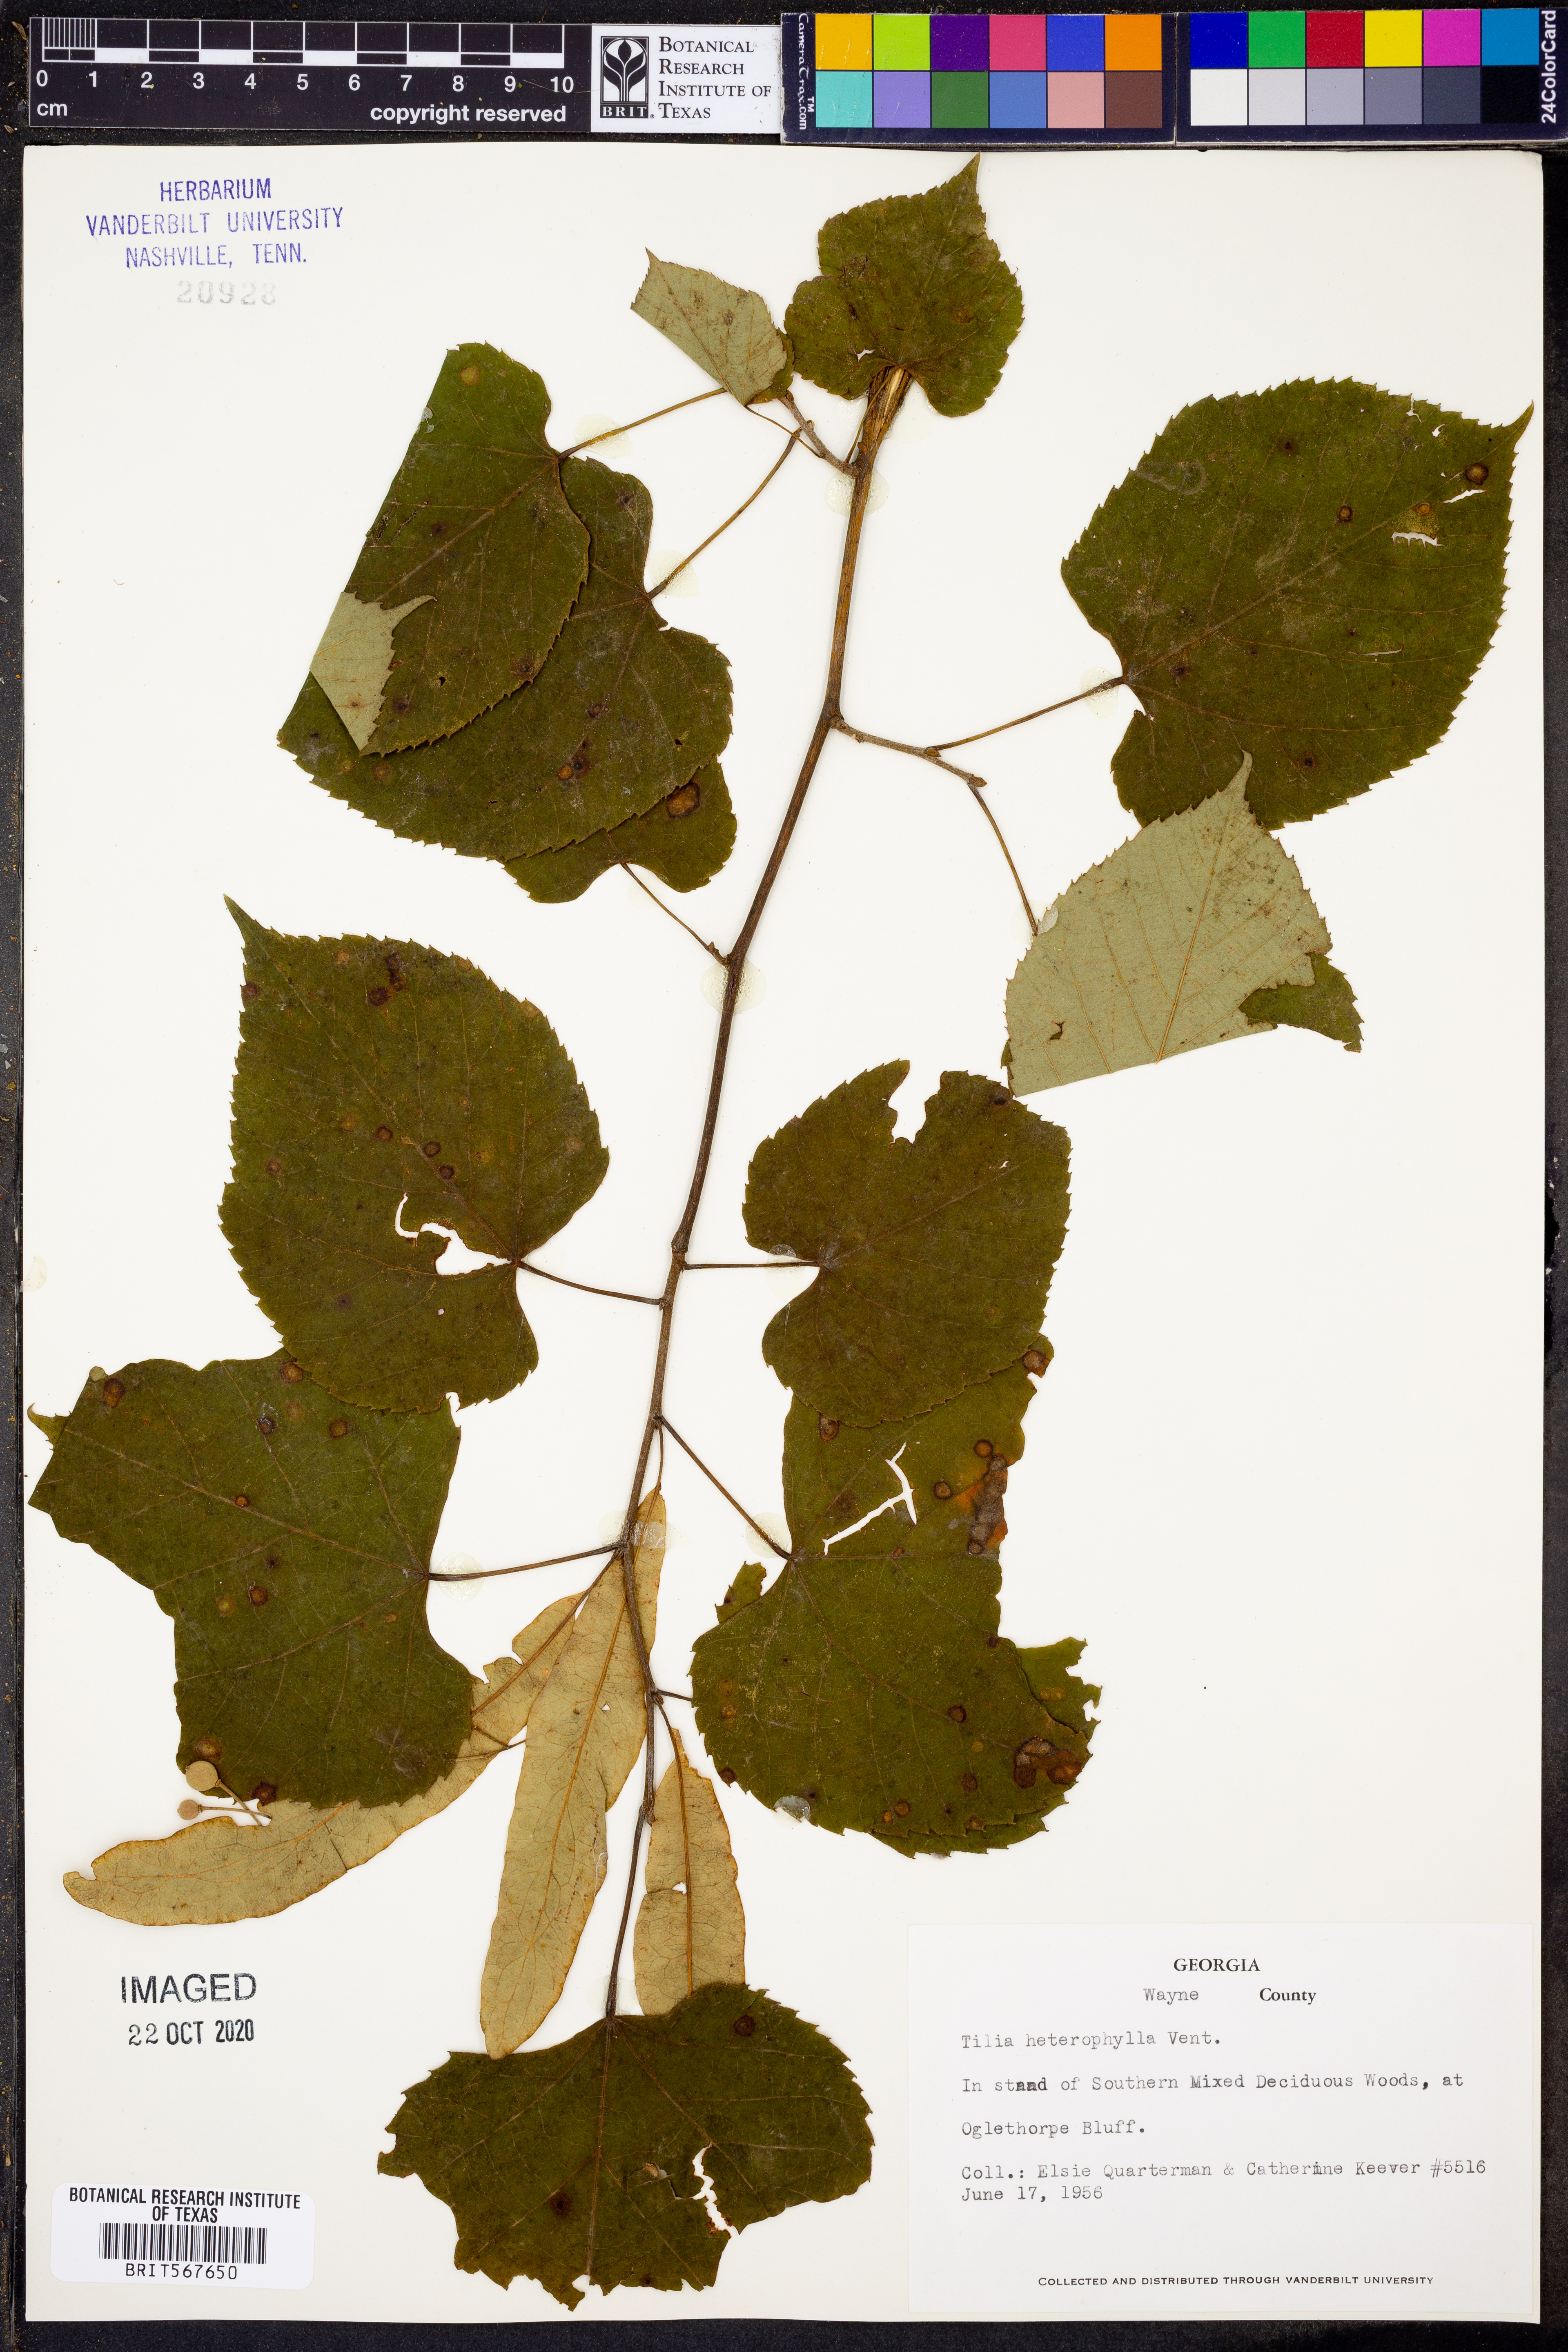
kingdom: Plantae
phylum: Tracheophyta
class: Magnoliopsida
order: Malvales
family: Malvaceae
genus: Tilia
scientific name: Tilia americana
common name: Basswood
